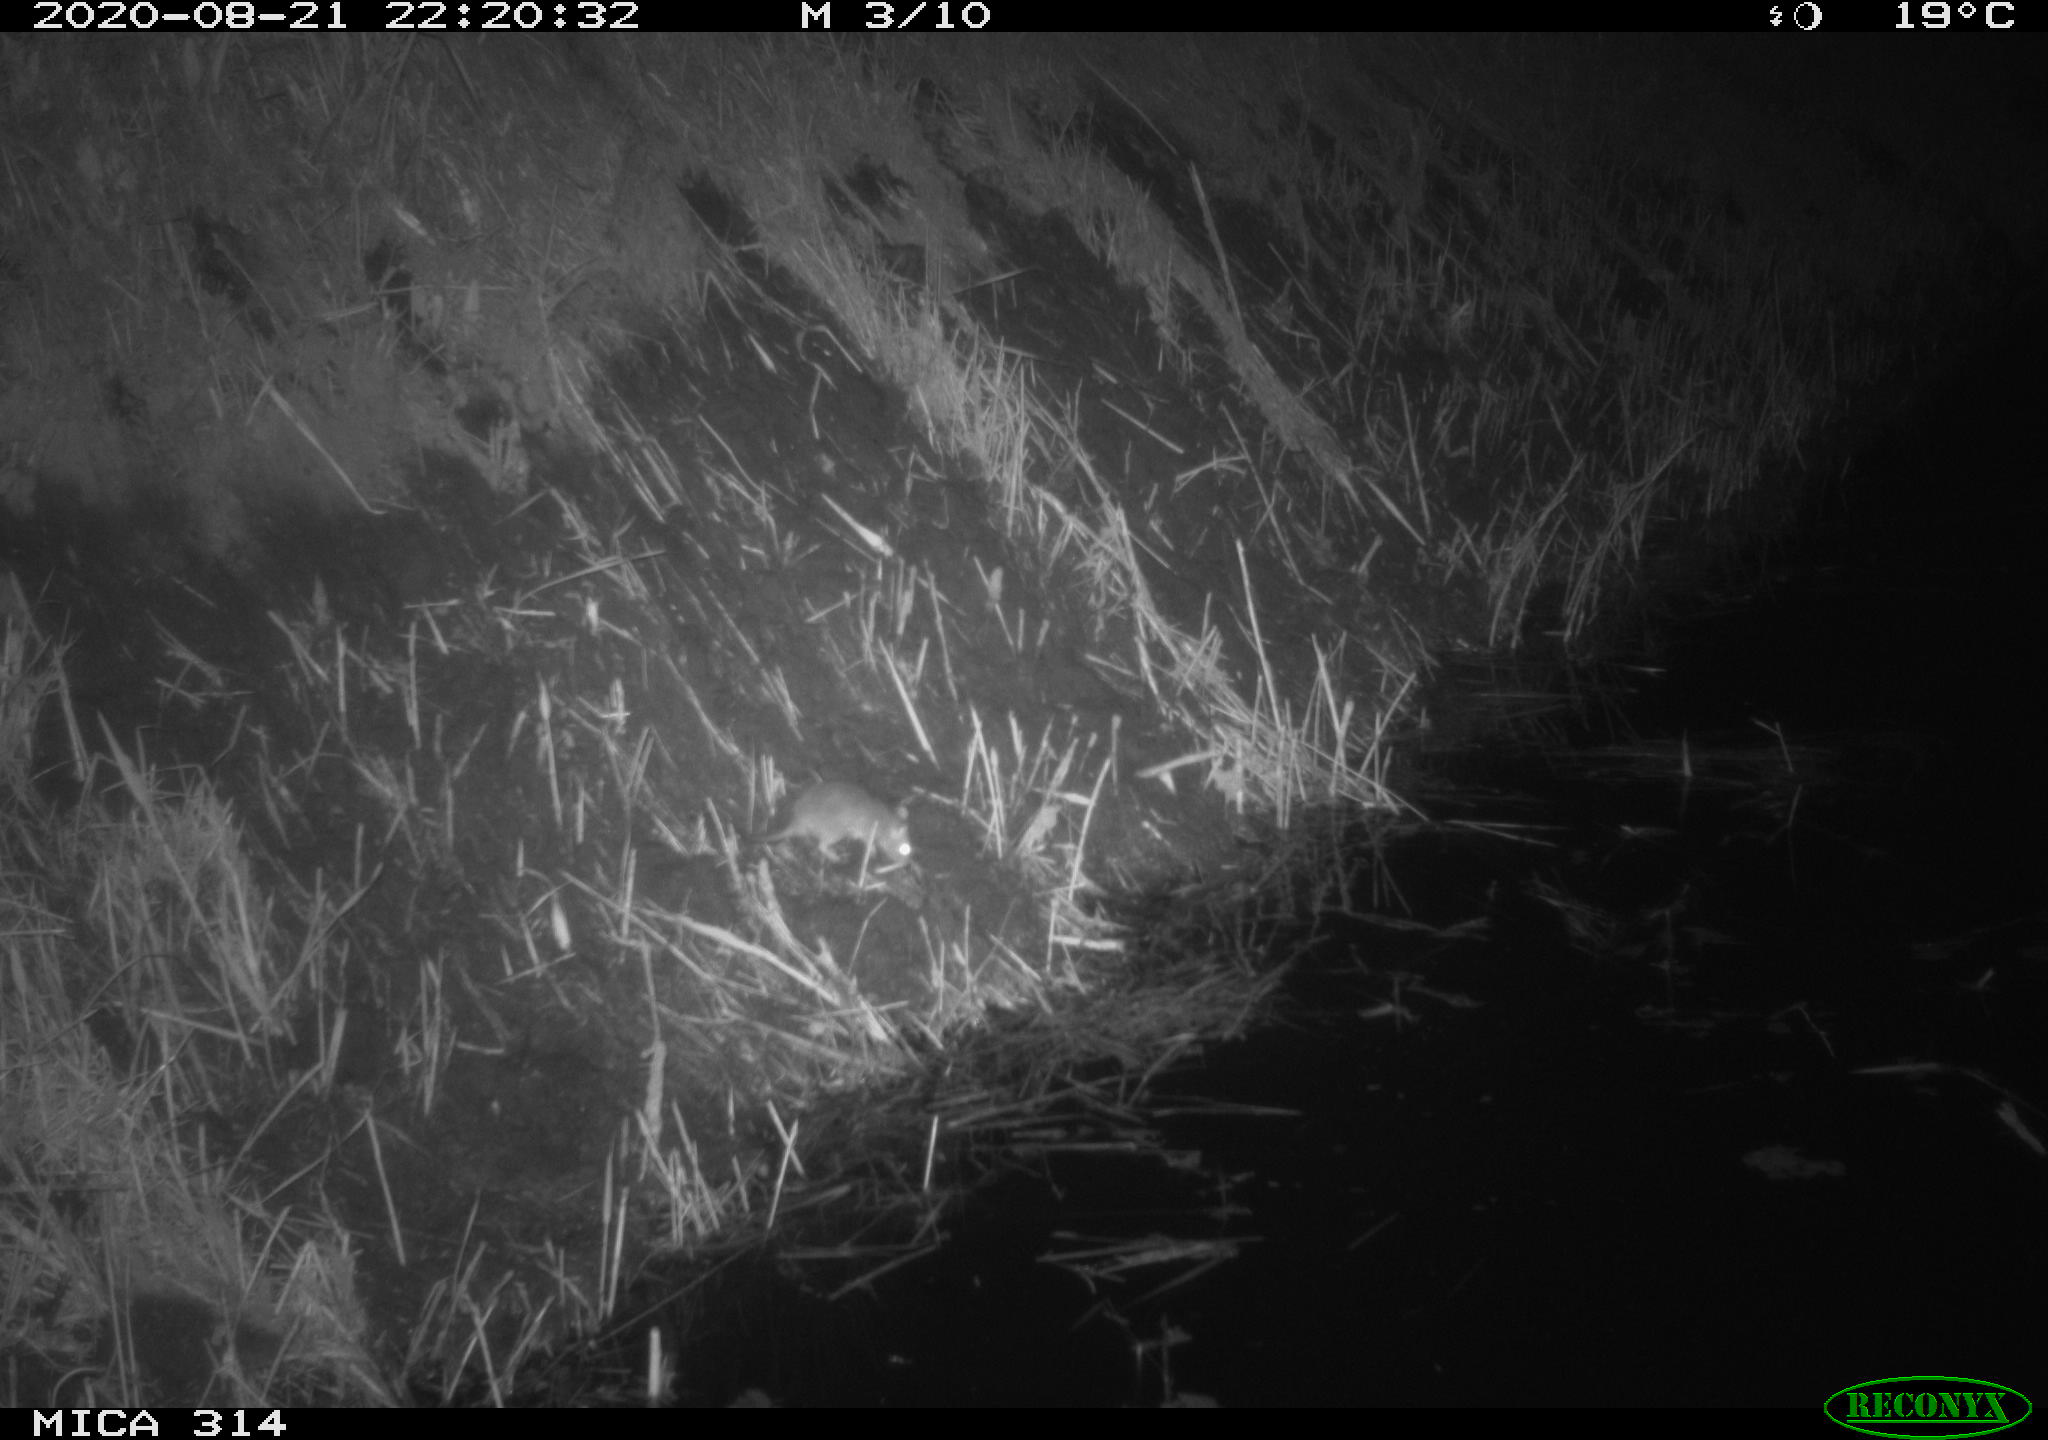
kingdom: Animalia
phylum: Chordata
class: Mammalia
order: Rodentia
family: Muridae
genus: Rattus
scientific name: Rattus norvegicus
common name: Brown rat
